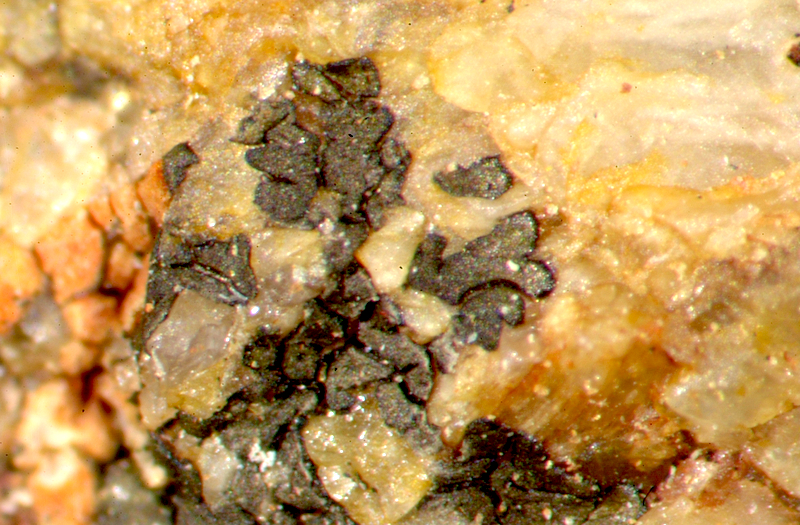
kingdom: Fungi
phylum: Ascomycota
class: Lecanoromycetes
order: Teloschistales
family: Teloschistaceae
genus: Neobrownliella
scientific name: Neobrownliella cinnabarina
